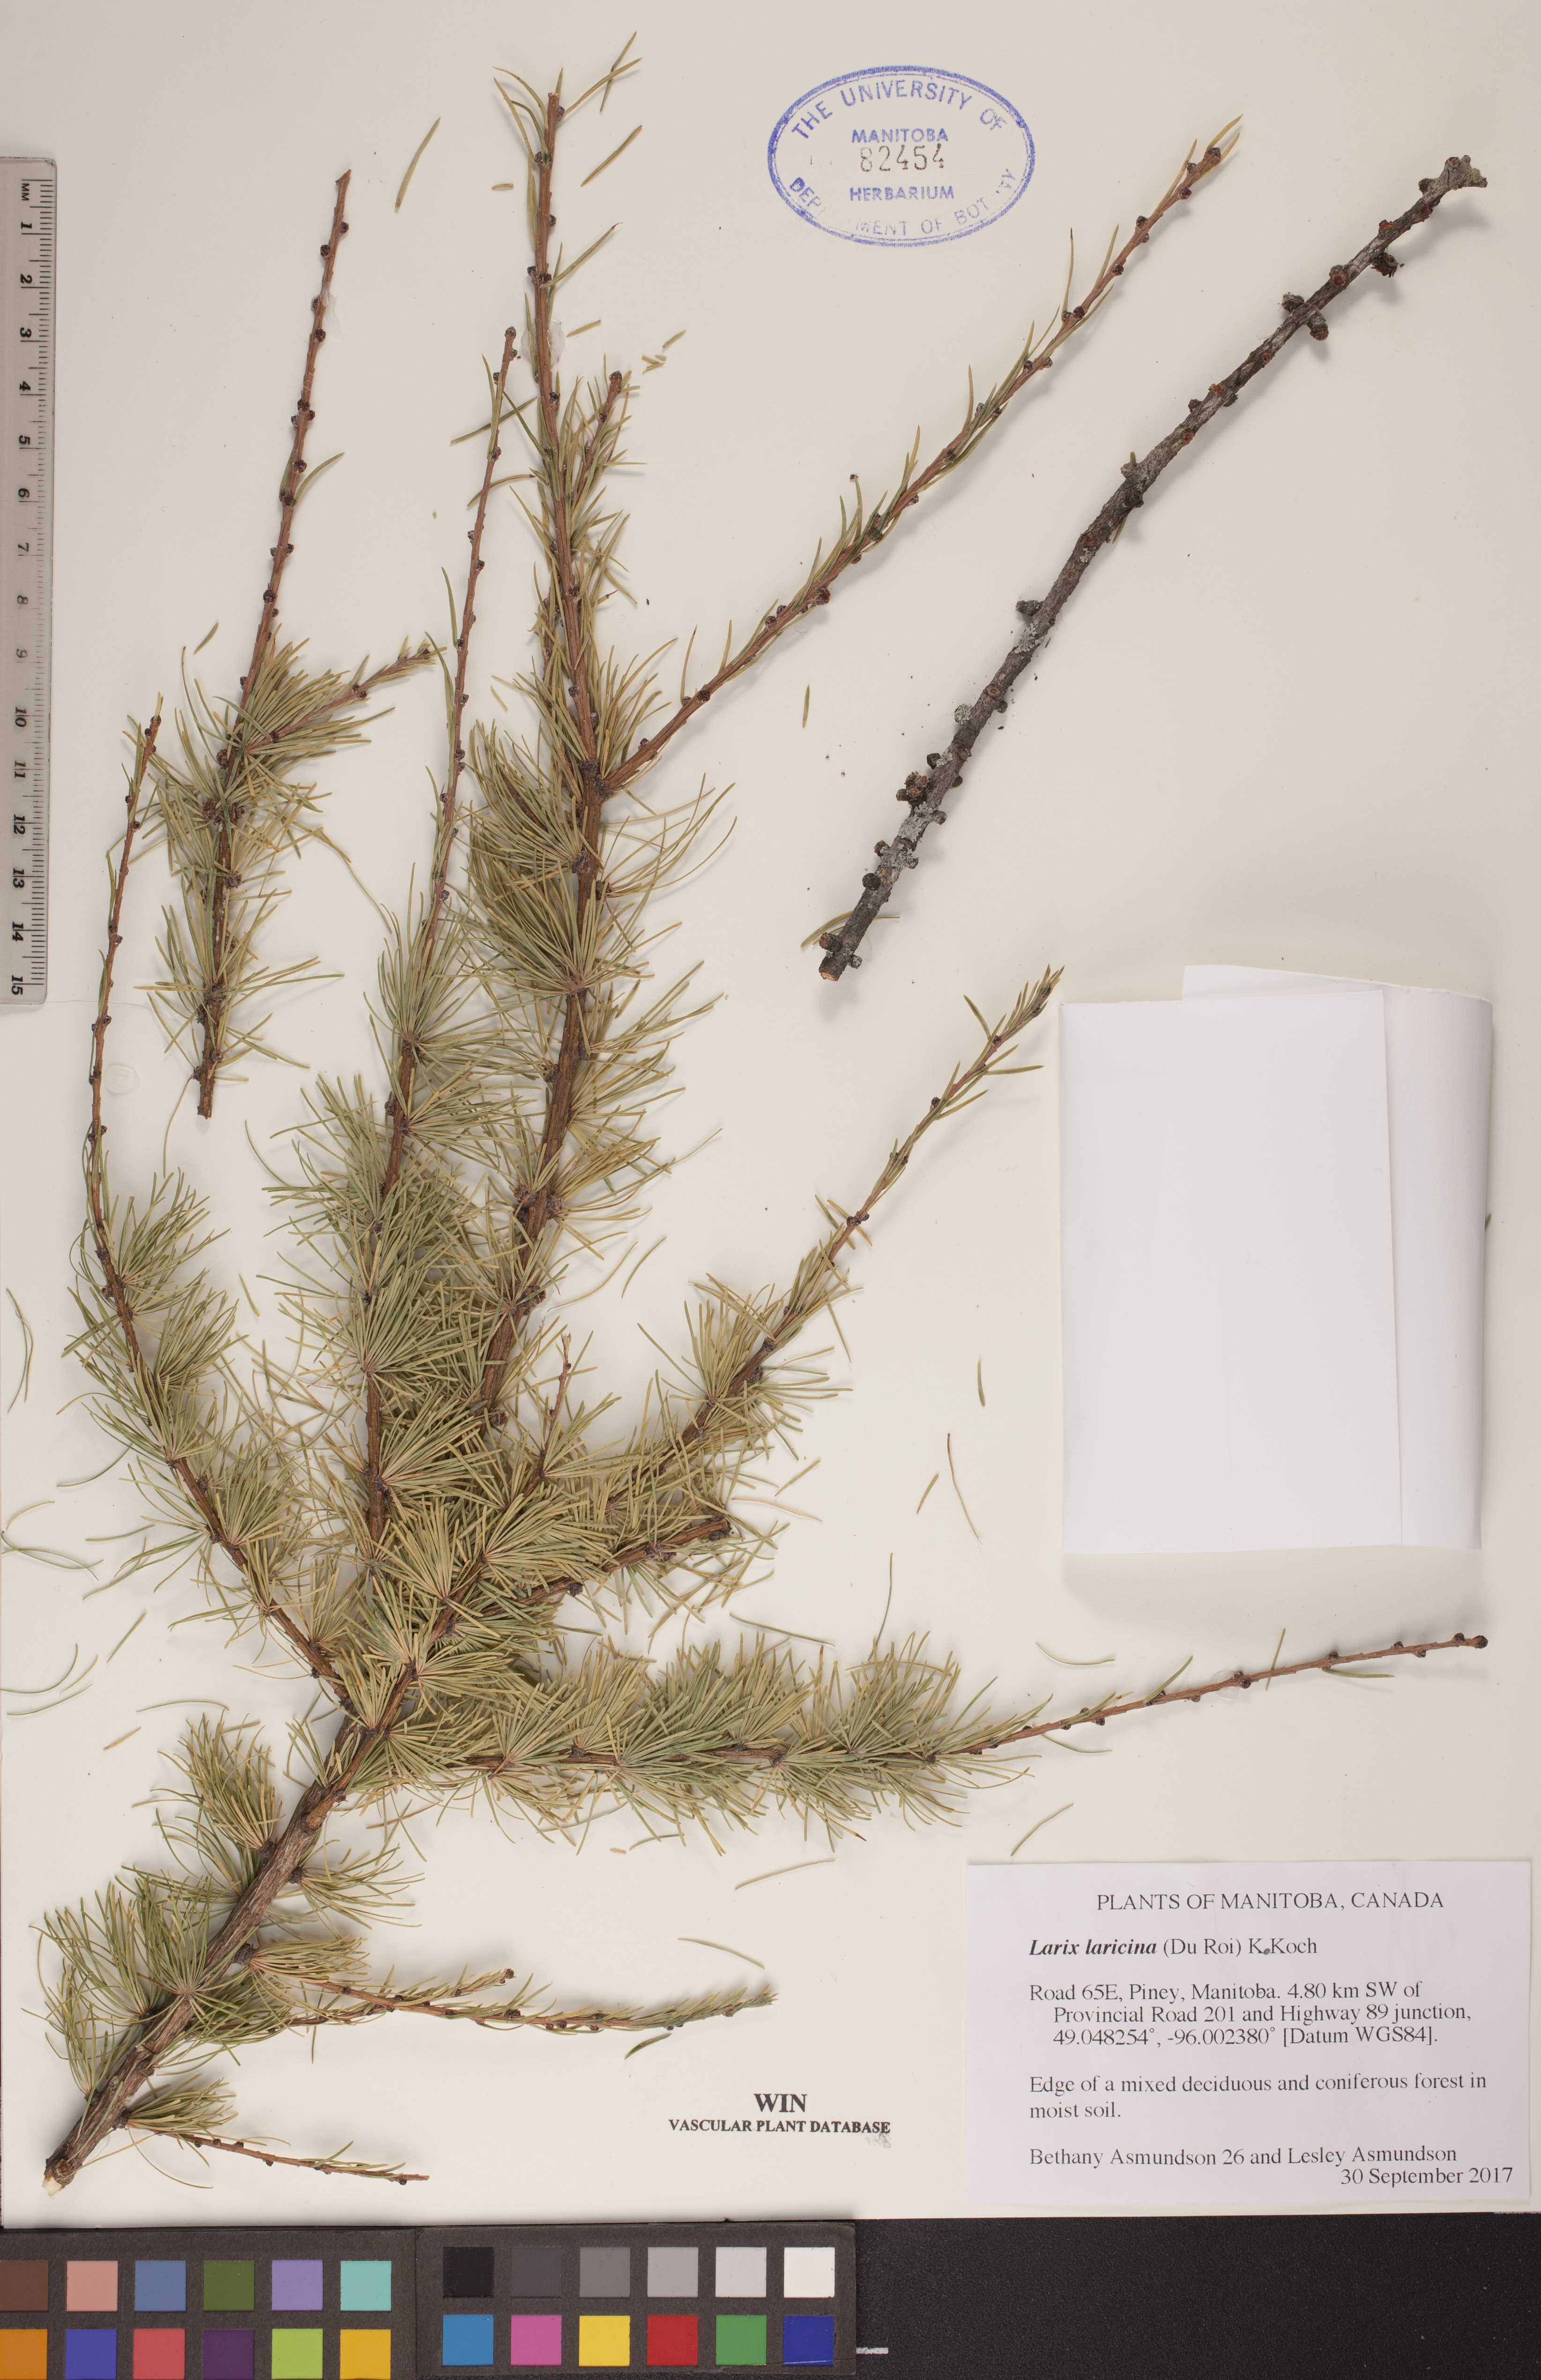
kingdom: Plantae
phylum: Tracheophyta
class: Pinopsida
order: Pinales
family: Pinaceae
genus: Larix
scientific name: Larix laricina
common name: American larch
